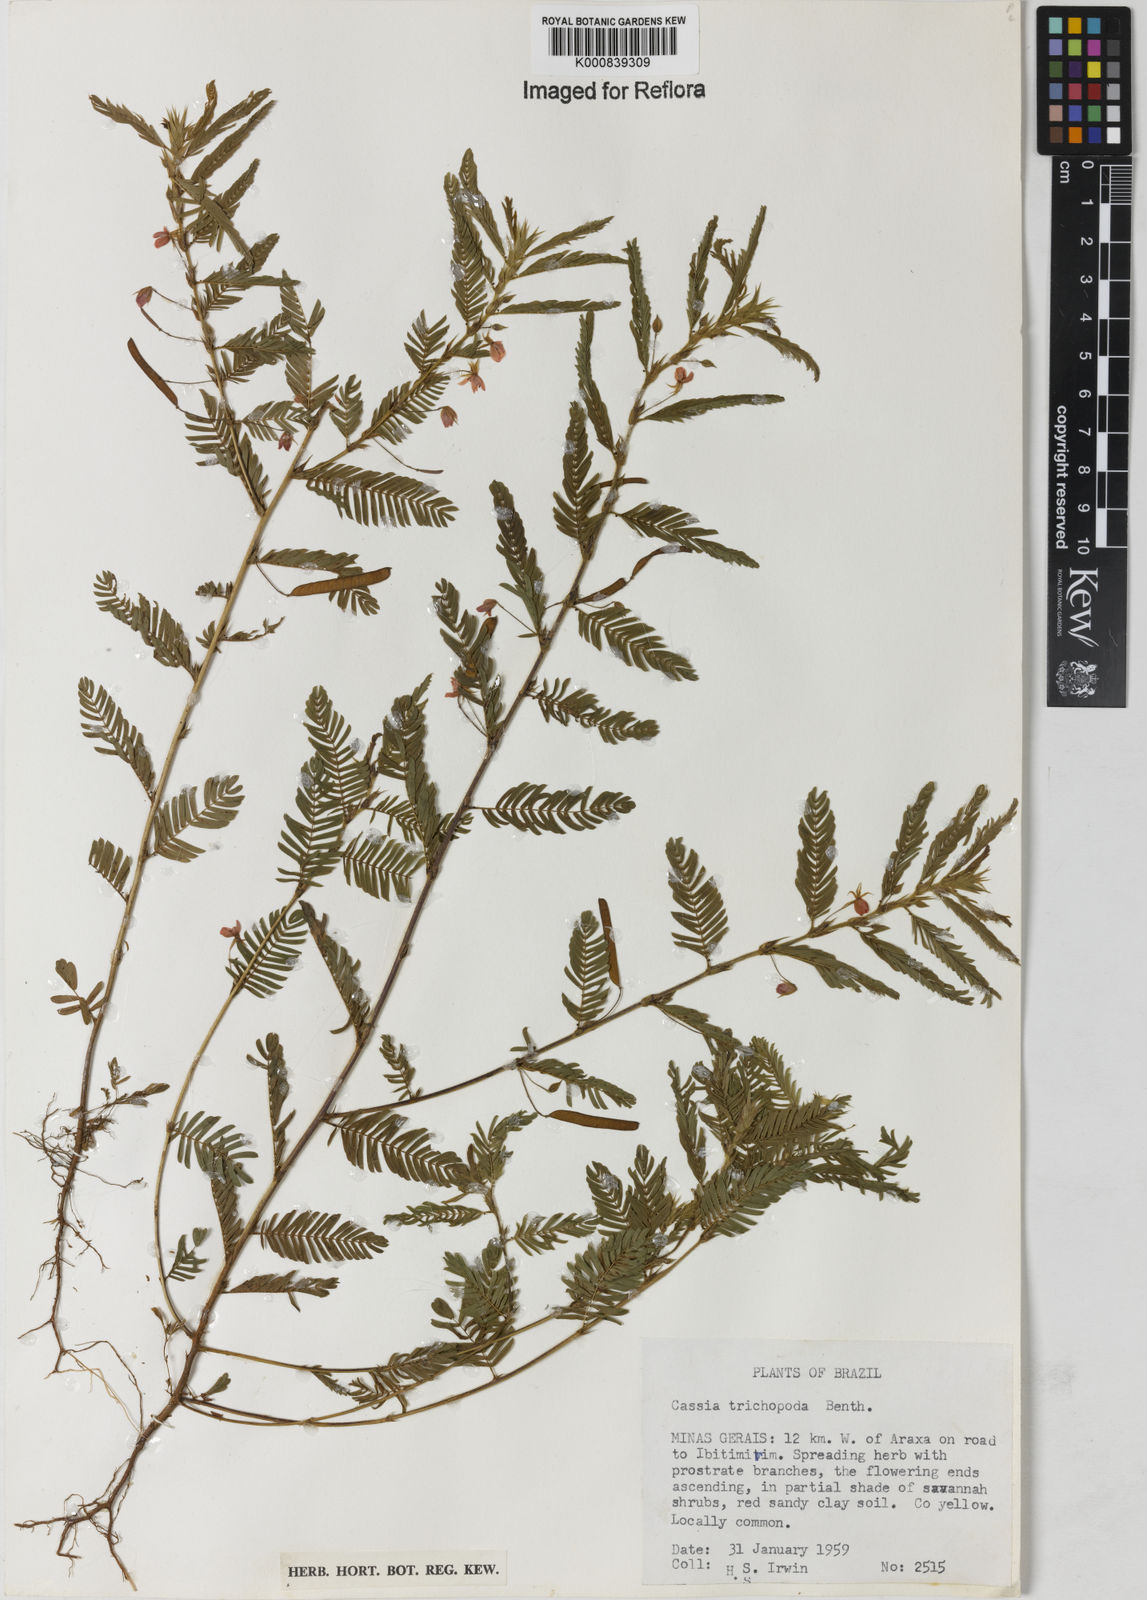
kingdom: Plantae
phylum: Tracheophyta
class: Magnoliopsida
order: Fabales
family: Fabaceae
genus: Chamaecrista
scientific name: Chamaecrista trichopoda
